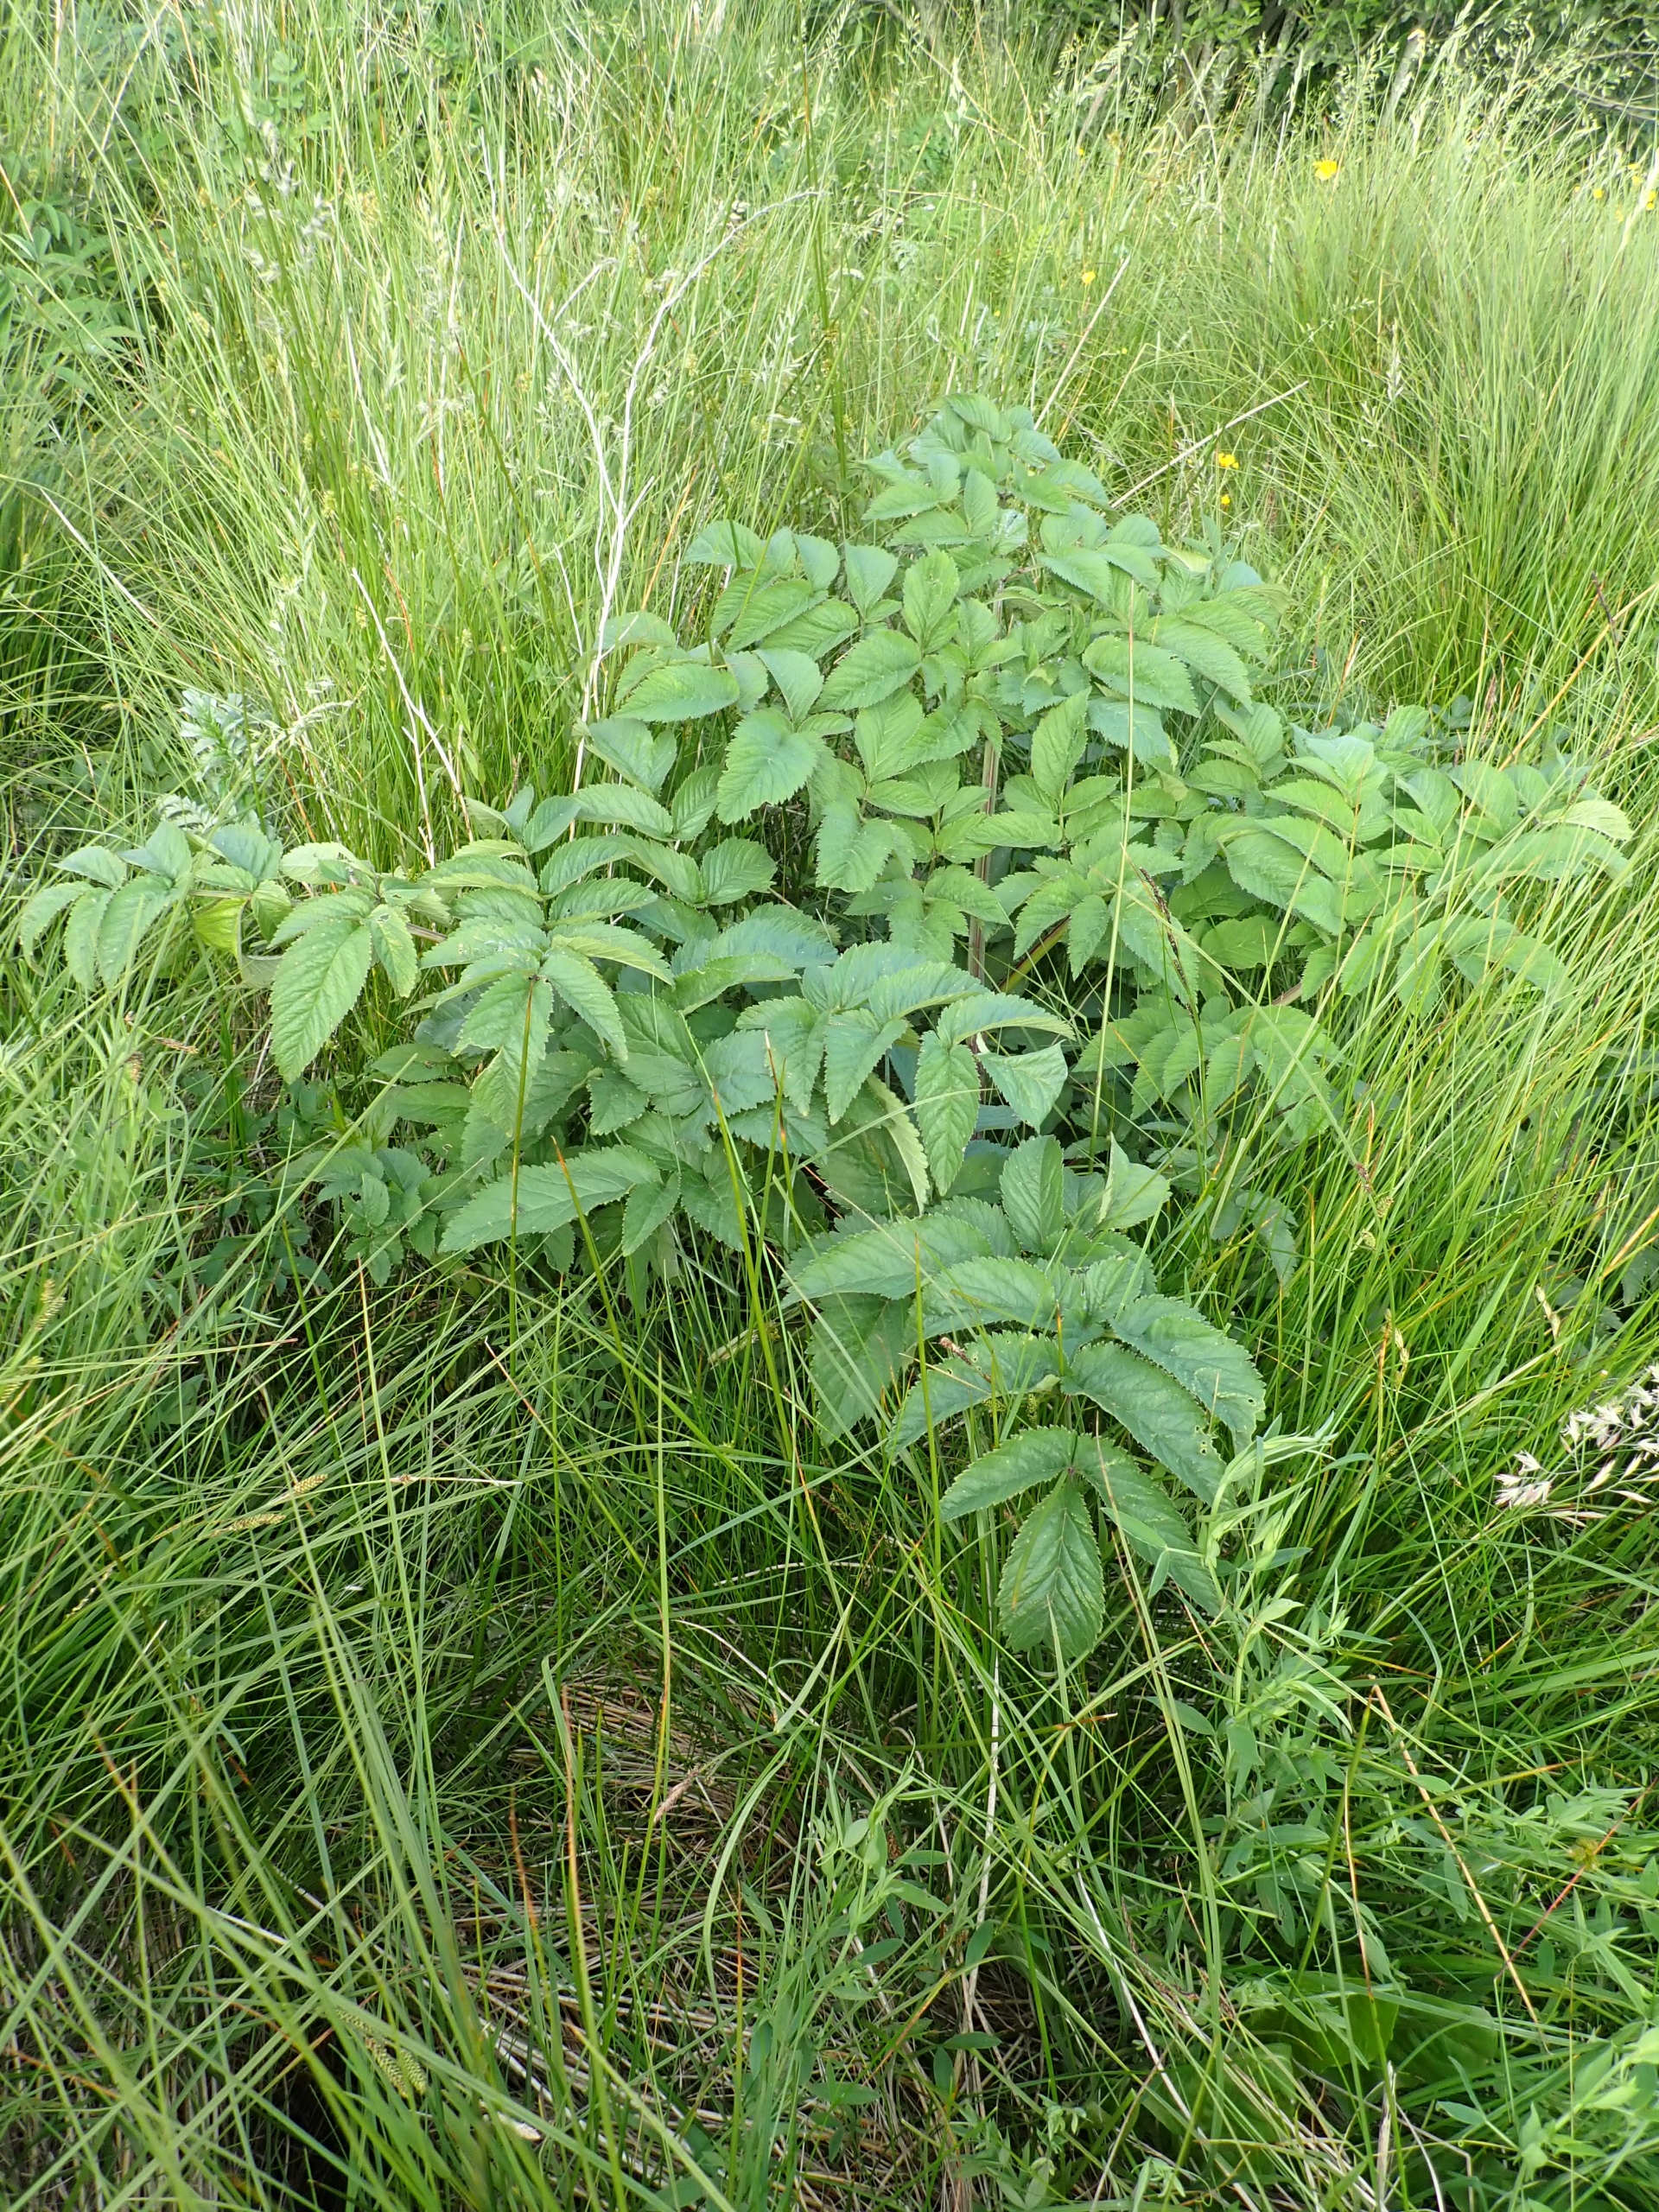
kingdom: Plantae
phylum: Tracheophyta
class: Magnoliopsida
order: Apiales
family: Apiaceae
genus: Angelica
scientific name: Angelica archangelica
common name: Kvan
